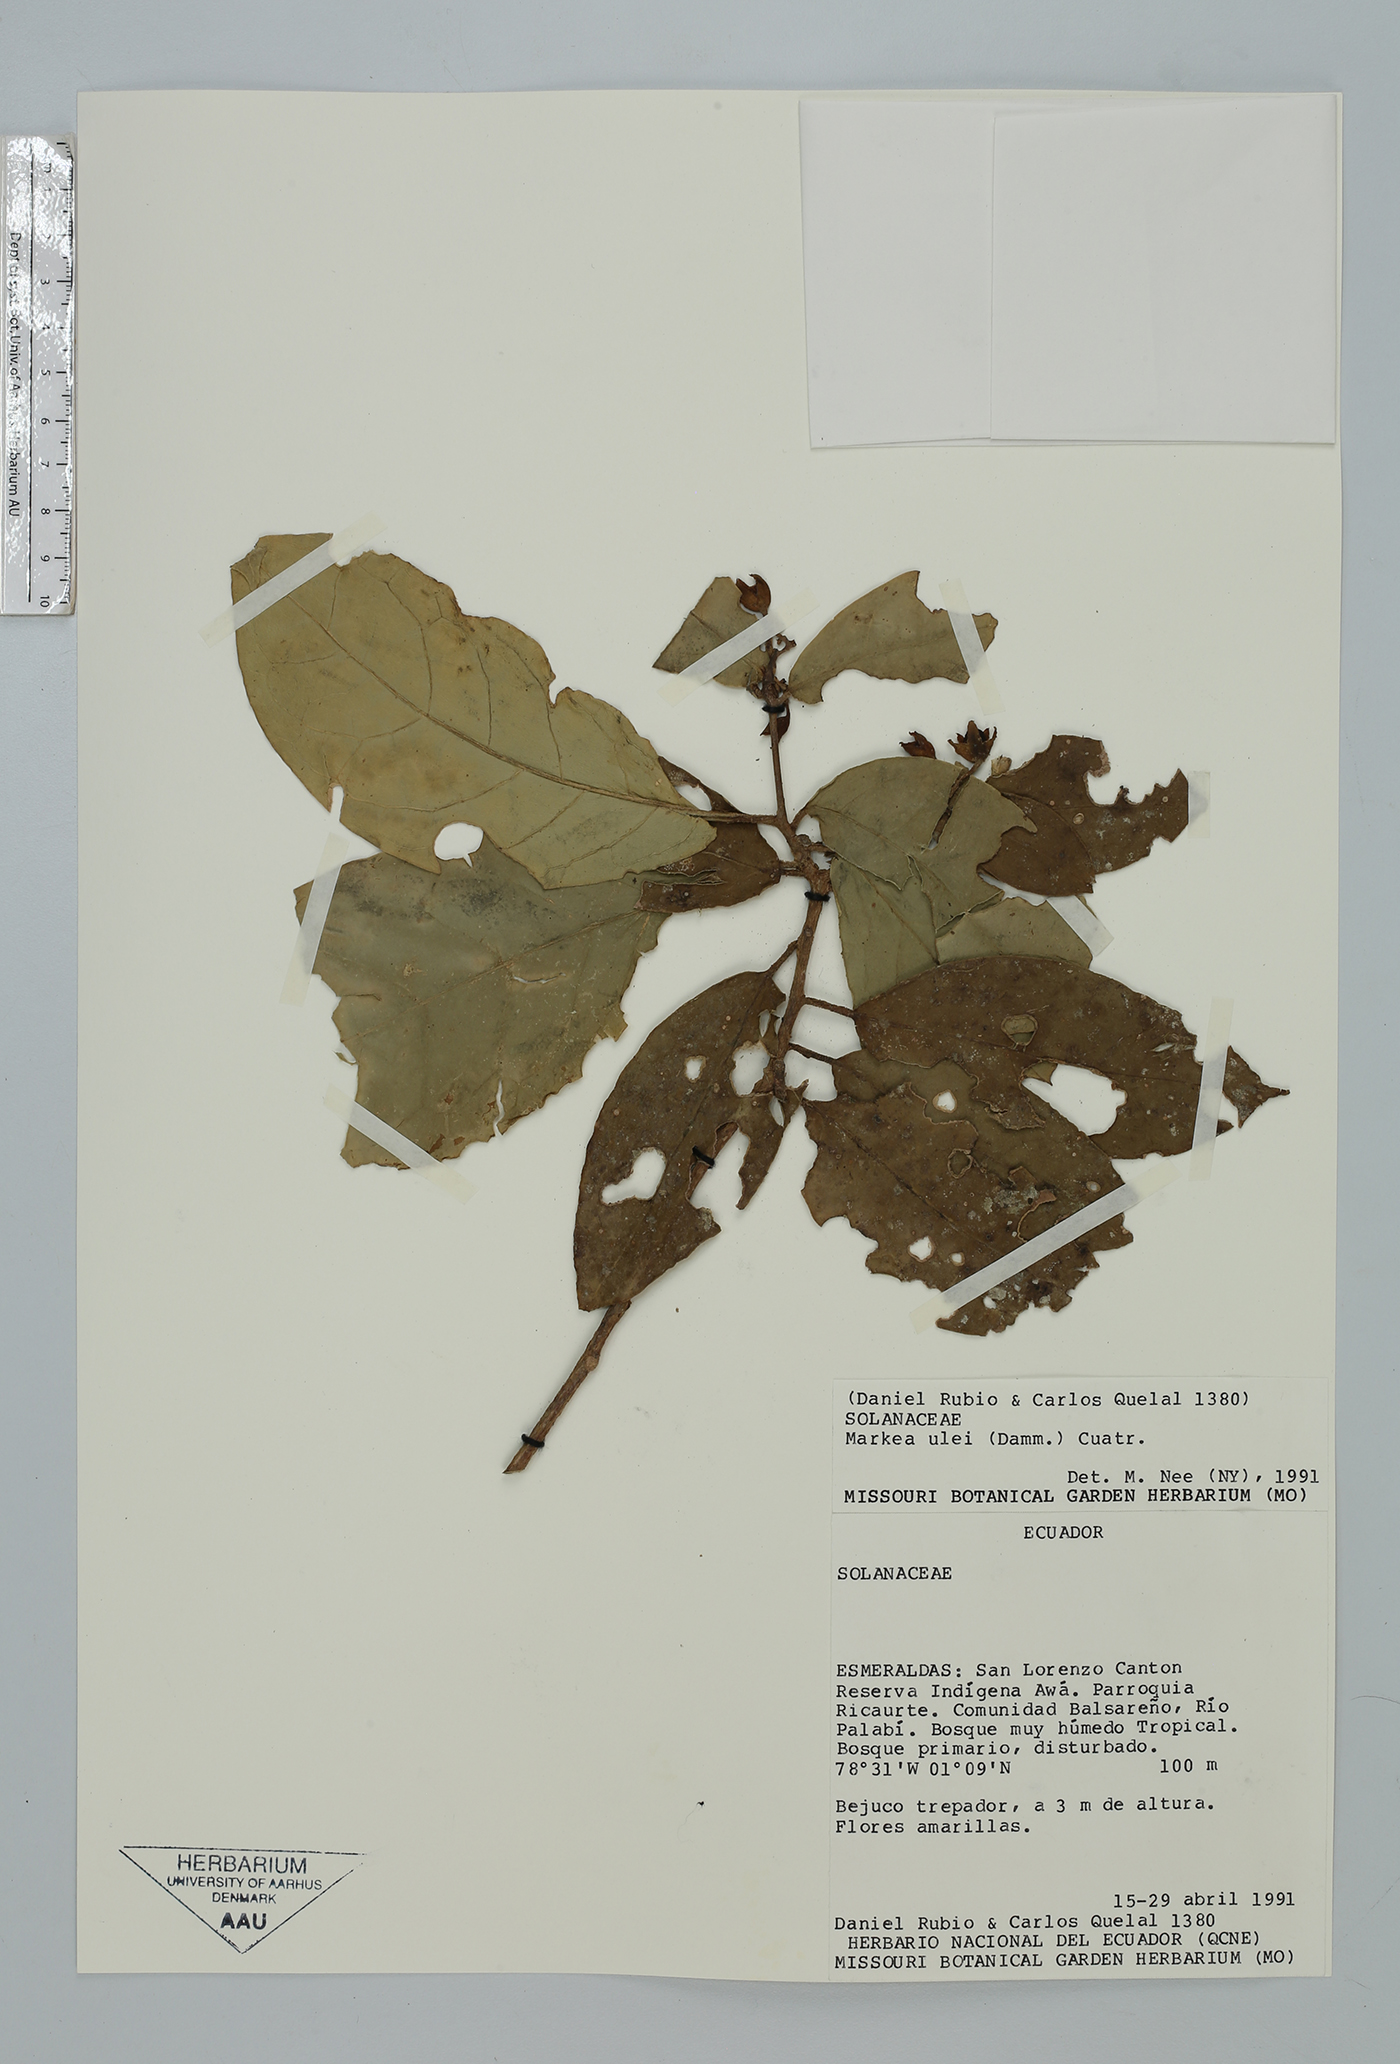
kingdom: Plantae
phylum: Tracheophyta
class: Magnoliopsida
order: Solanales
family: Solanaceae
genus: Markea
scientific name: Markea pavonii
